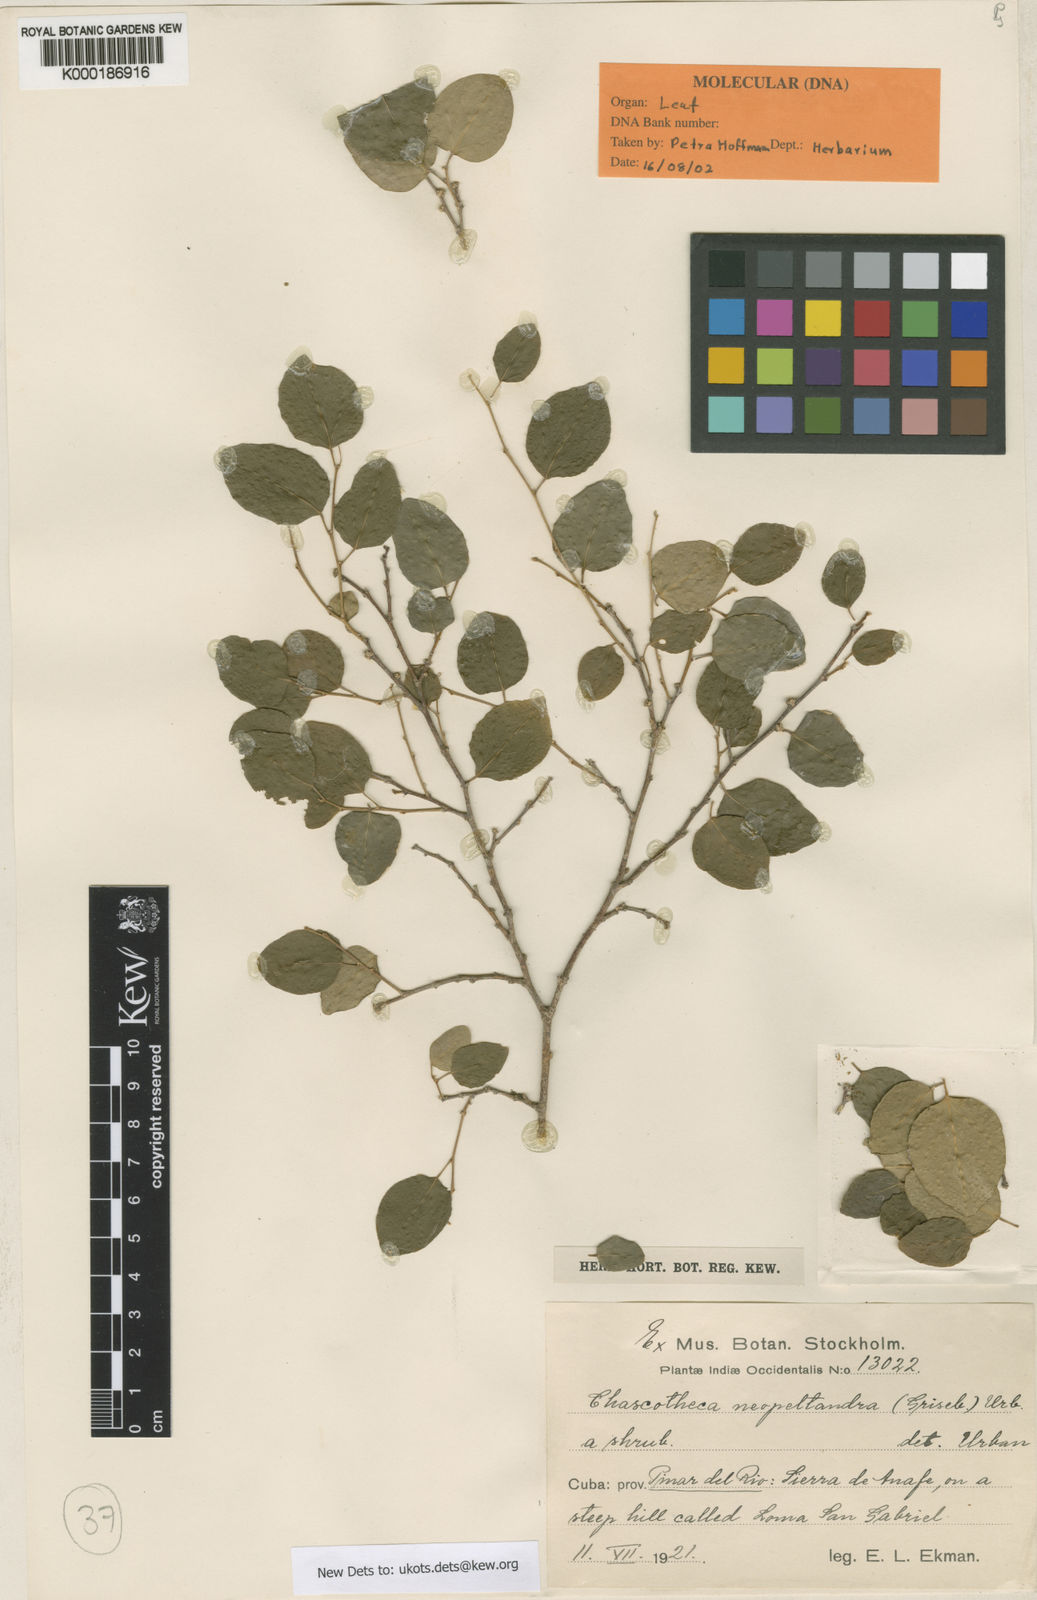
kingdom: Plantae
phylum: Tracheophyta
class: Magnoliopsida
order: Malpighiales
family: Phyllanthaceae
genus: Chascotheca
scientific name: Chascotheca neopeltandra
